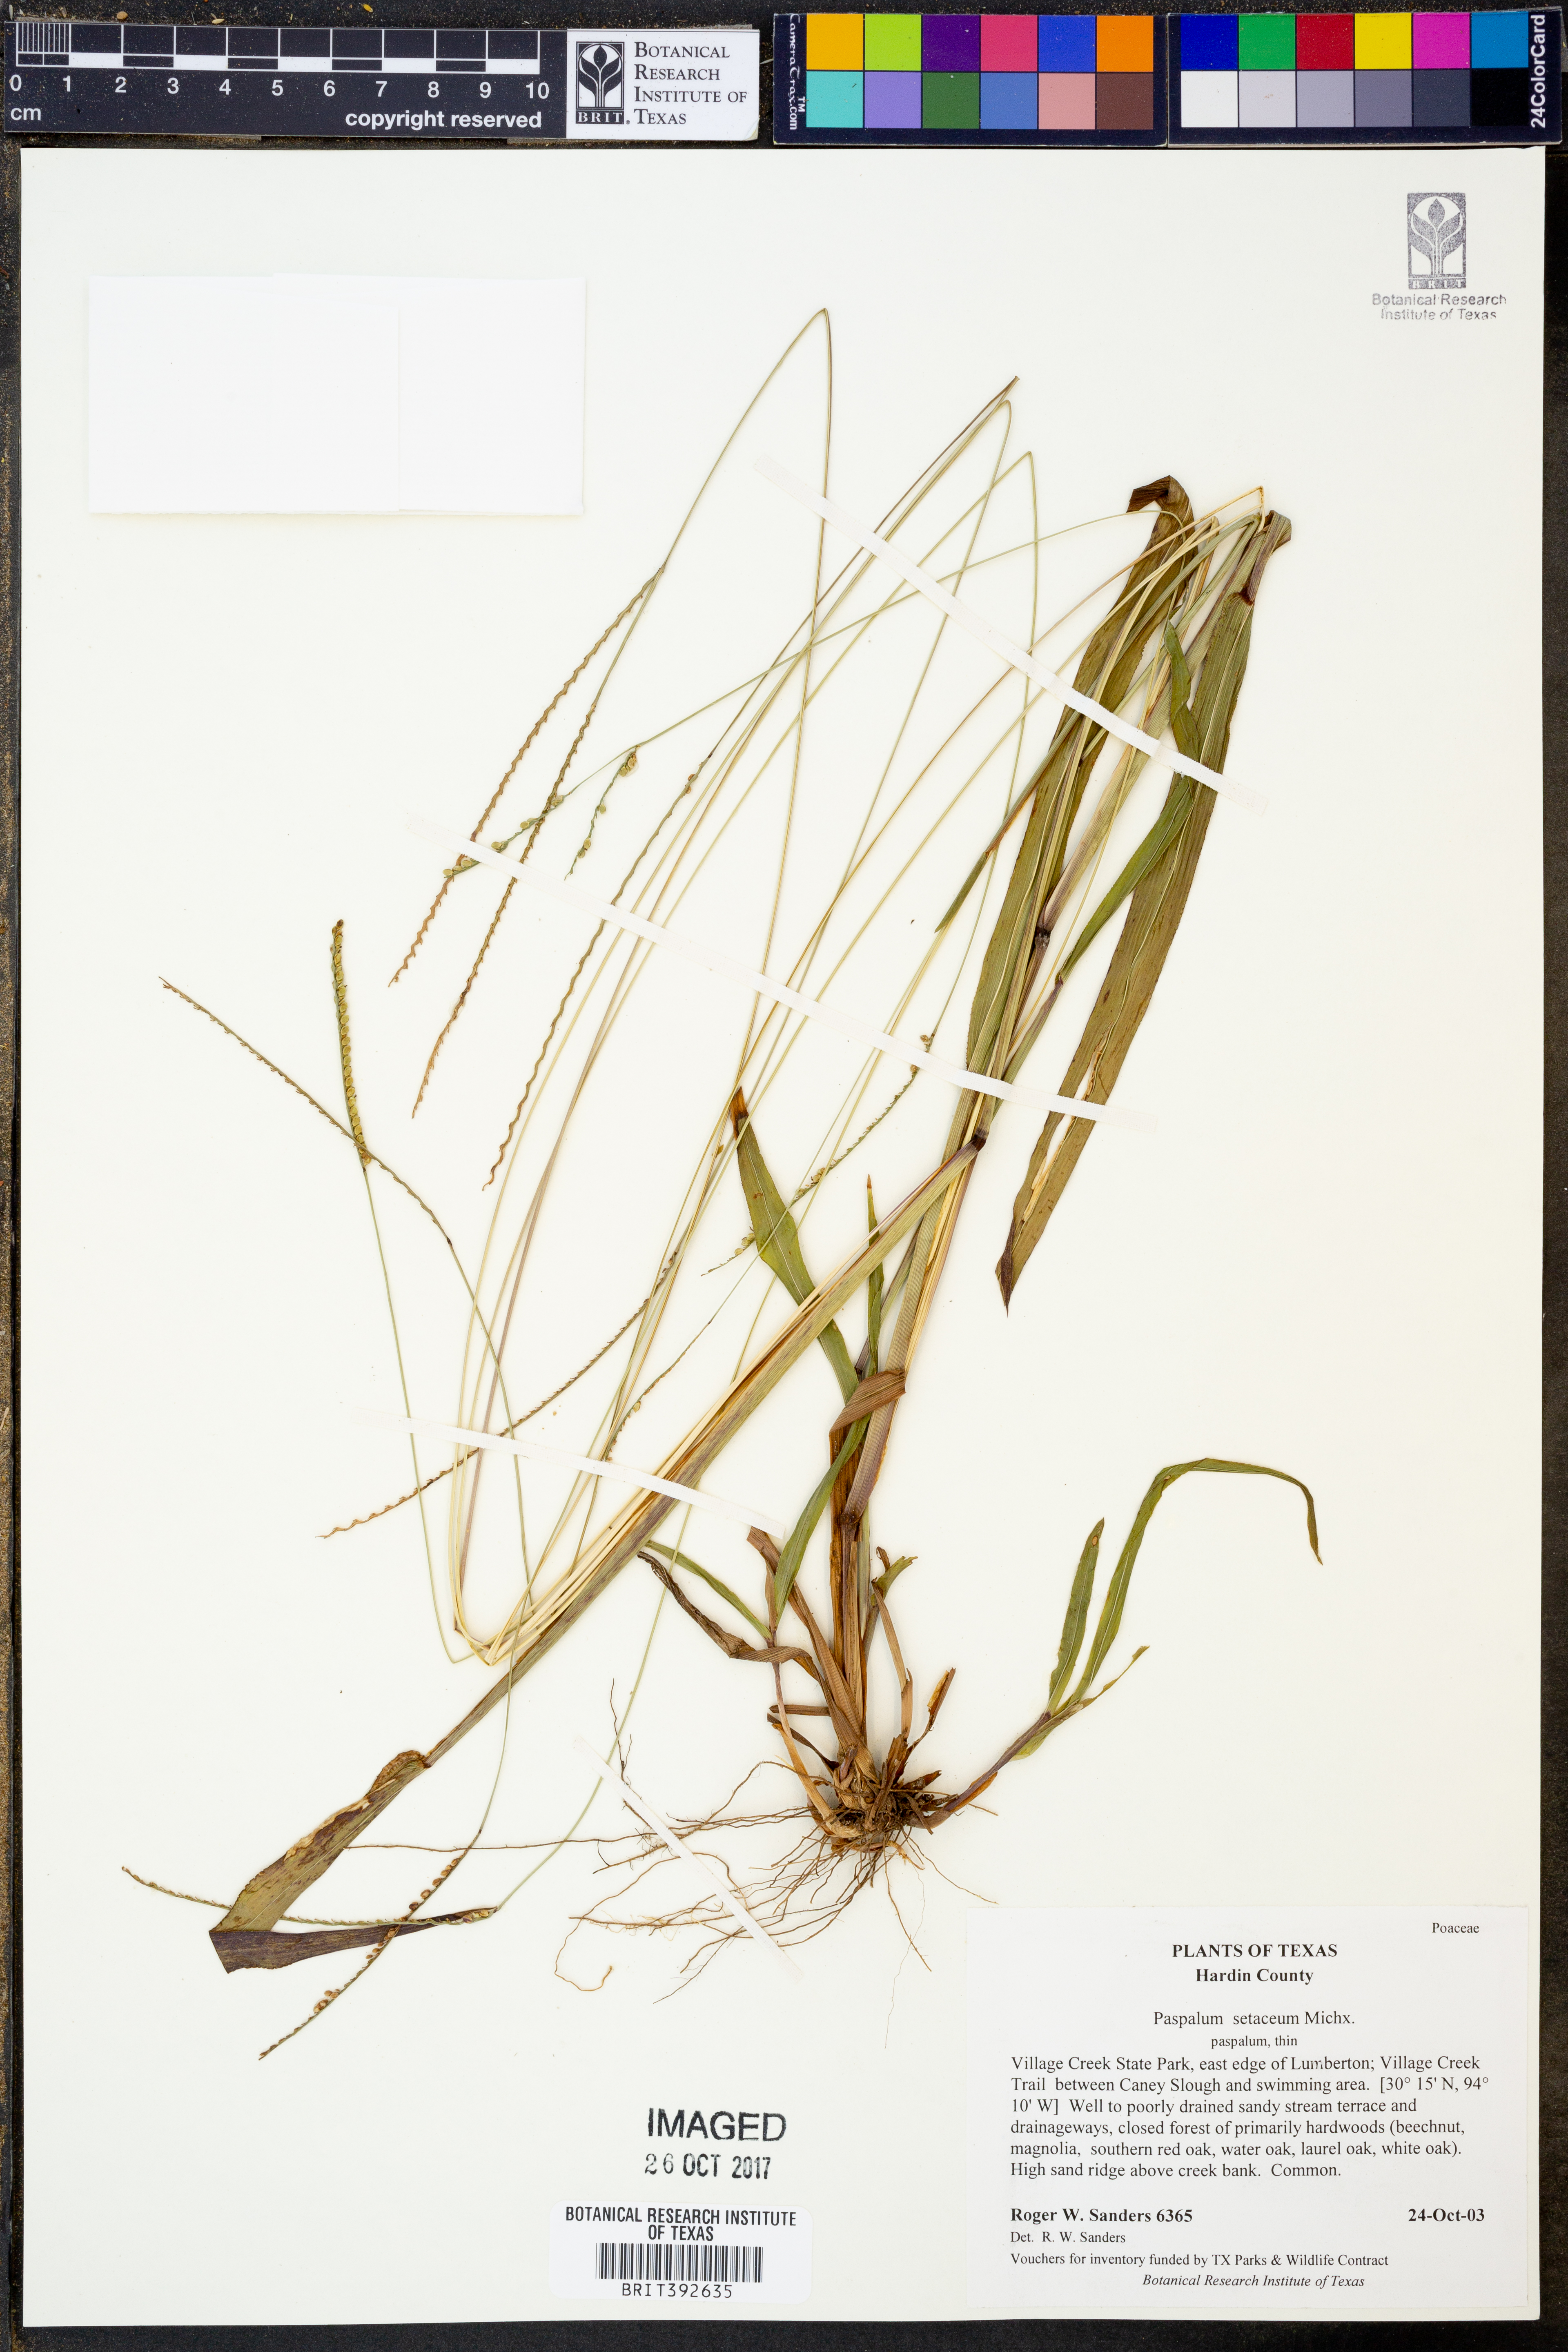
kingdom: Plantae
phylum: Tracheophyta
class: Liliopsida
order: Poales
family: Poaceae
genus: Paspalum
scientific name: Paspalum setaceum
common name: Slender paspalum
